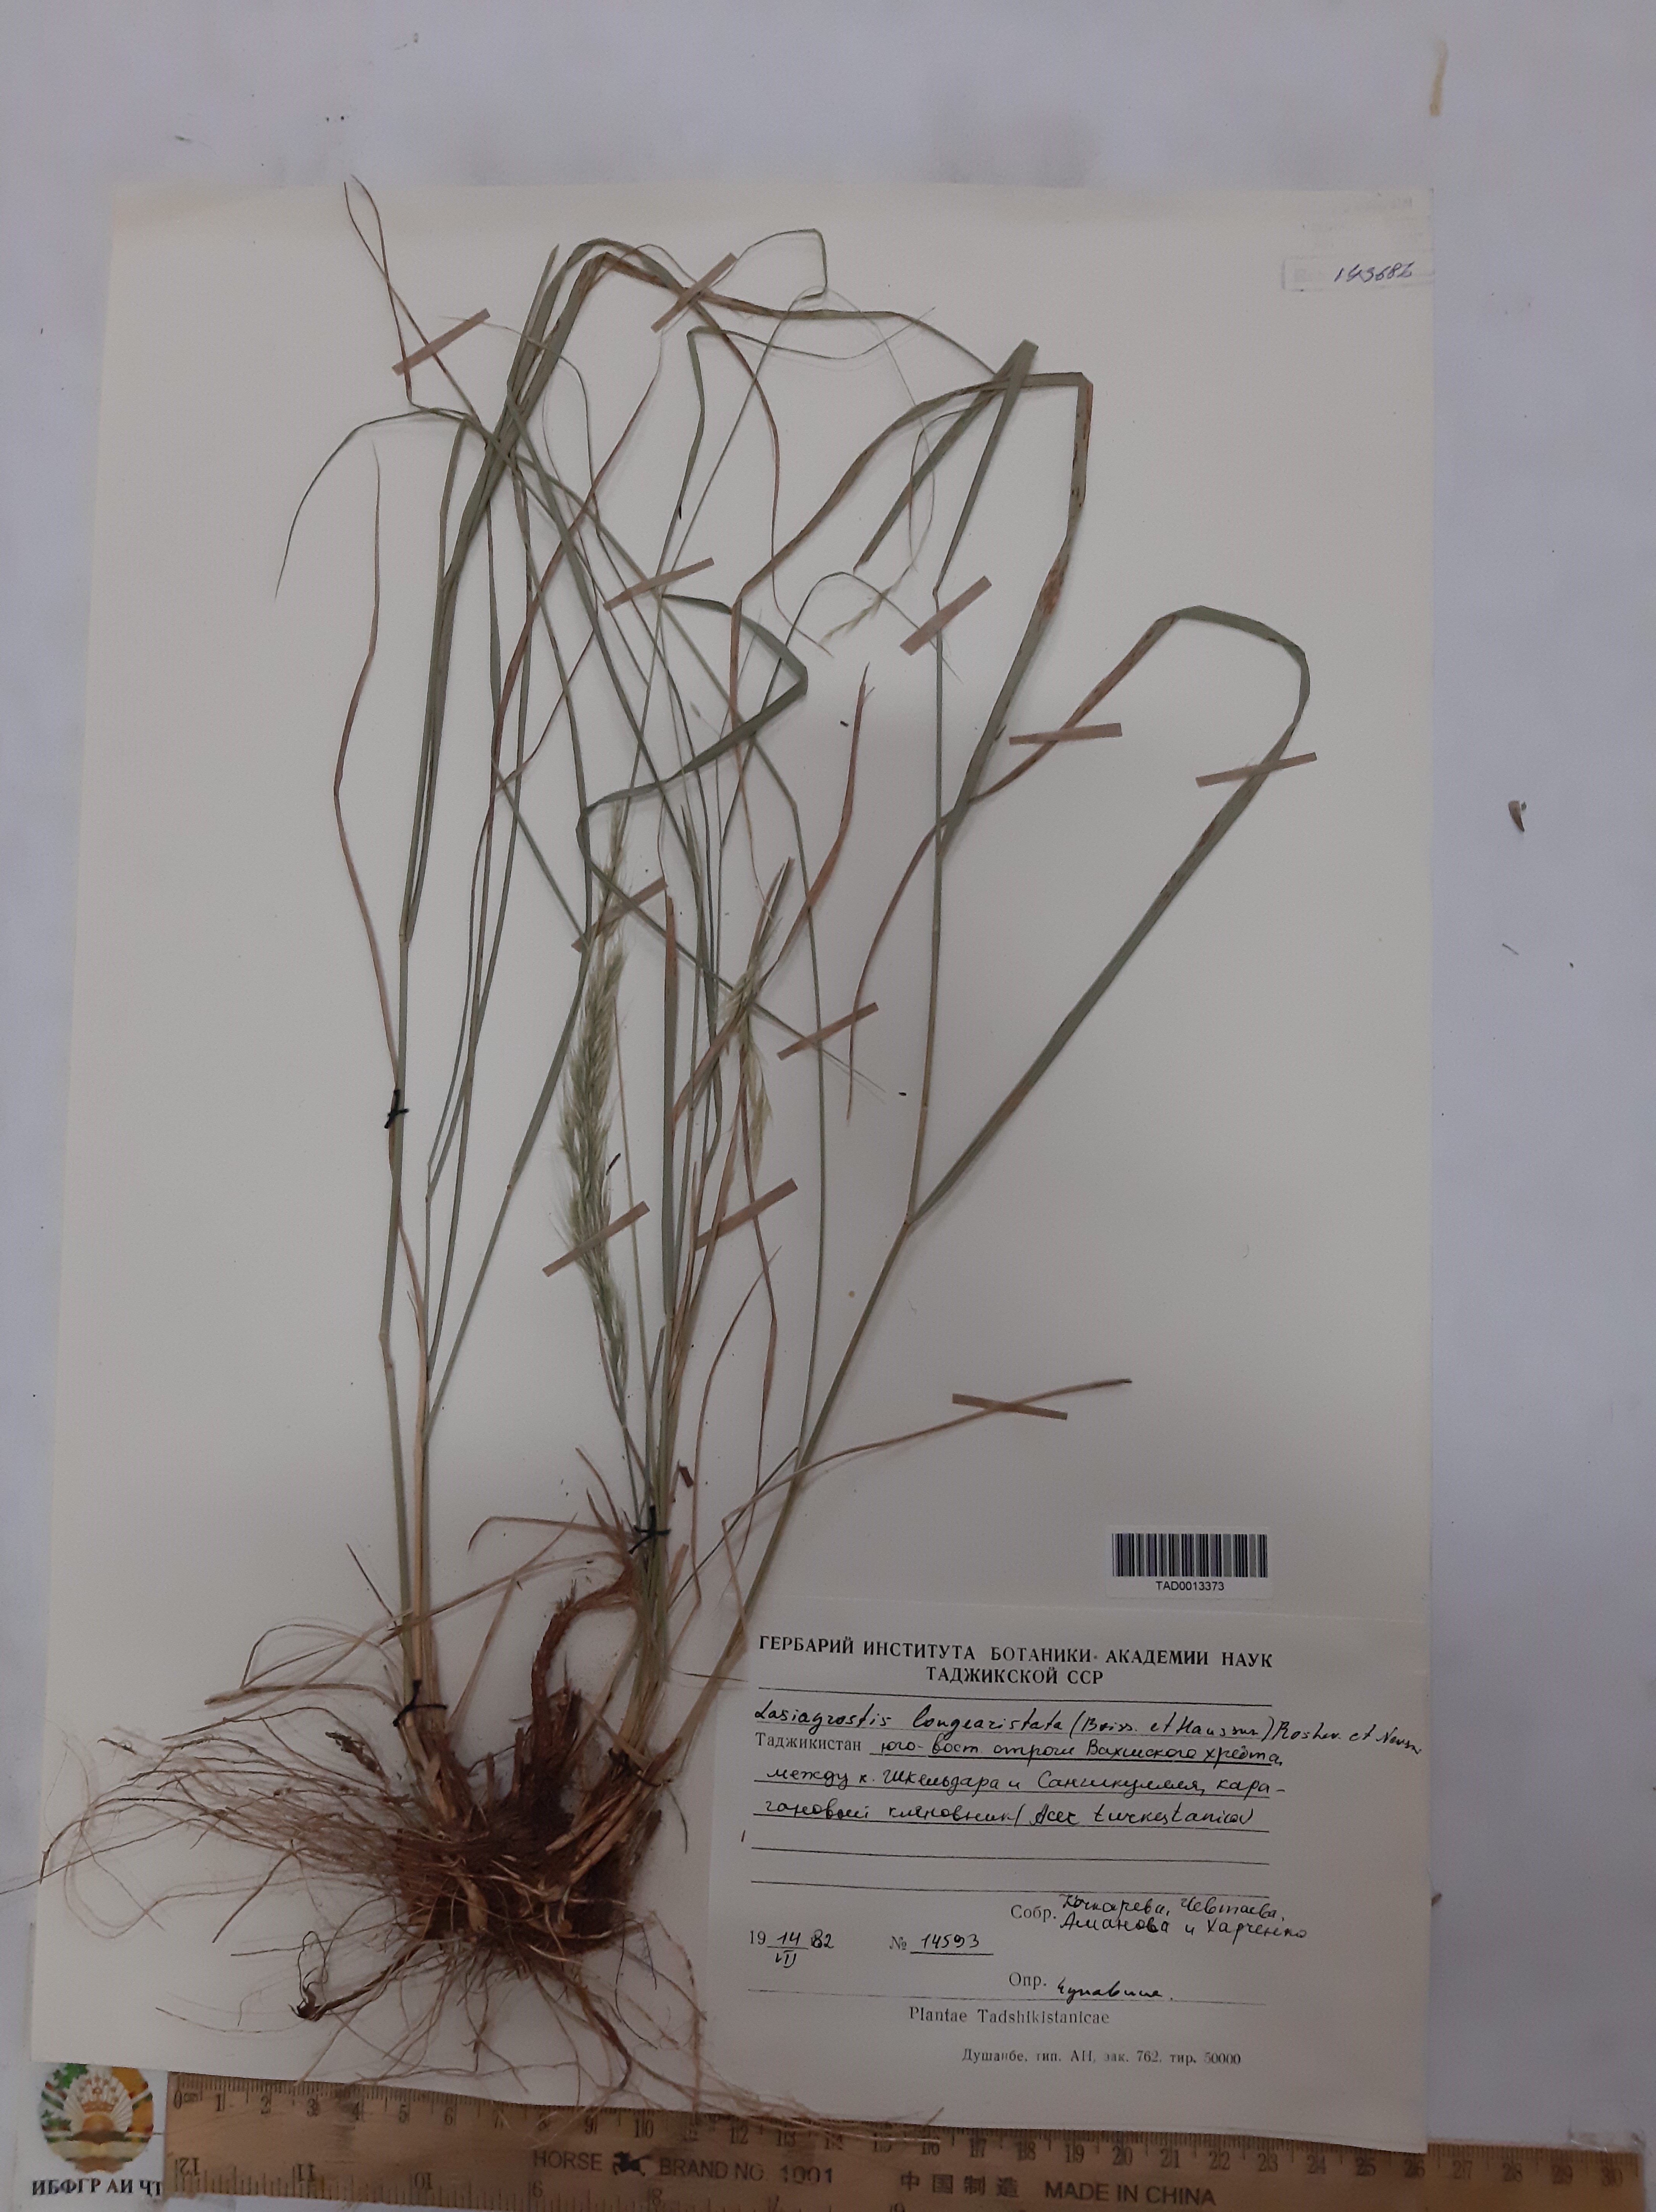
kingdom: Plantae
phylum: Tracheophyta
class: Liliopsida
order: Poales
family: Poaceae
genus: Achnatherum
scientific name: Achnatherum turcomanicum
